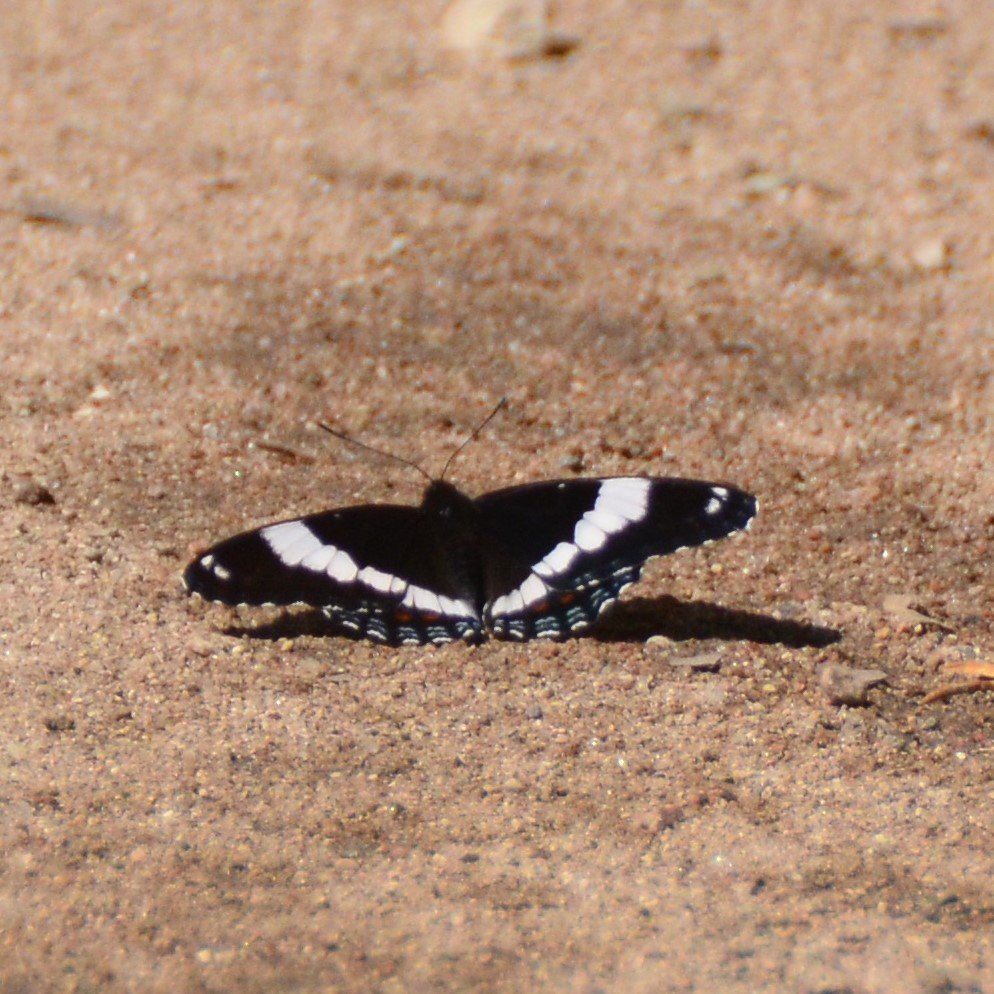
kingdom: Animalia
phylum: Arthropoda
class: Insecta
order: Lepidoptera
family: Nymphalidae
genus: Limenitis
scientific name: Limenitis arthemis
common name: Red-spotted Admiral
